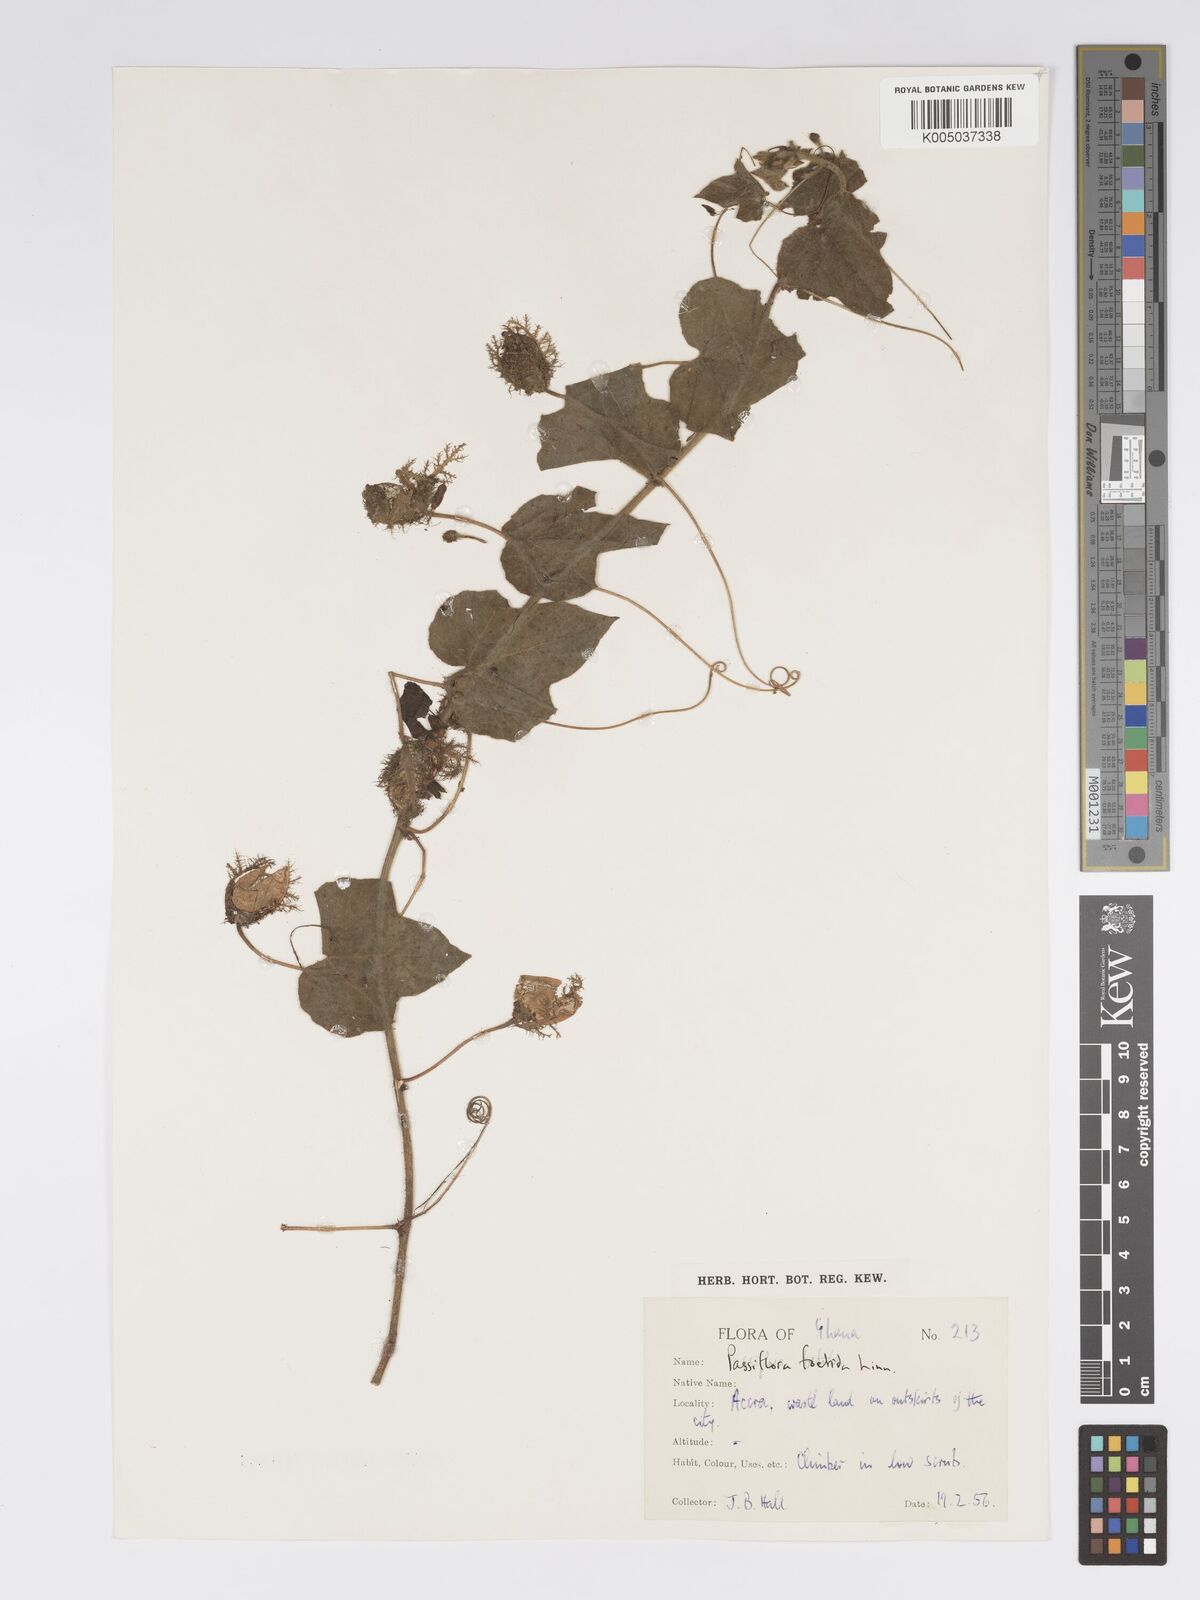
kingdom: Plantae
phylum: Tracheophyta
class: Magnoliopsida
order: Malpighiales
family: Passifloraceae
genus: Passiflora
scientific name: Passiflora foetida
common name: Fetid passionflower
